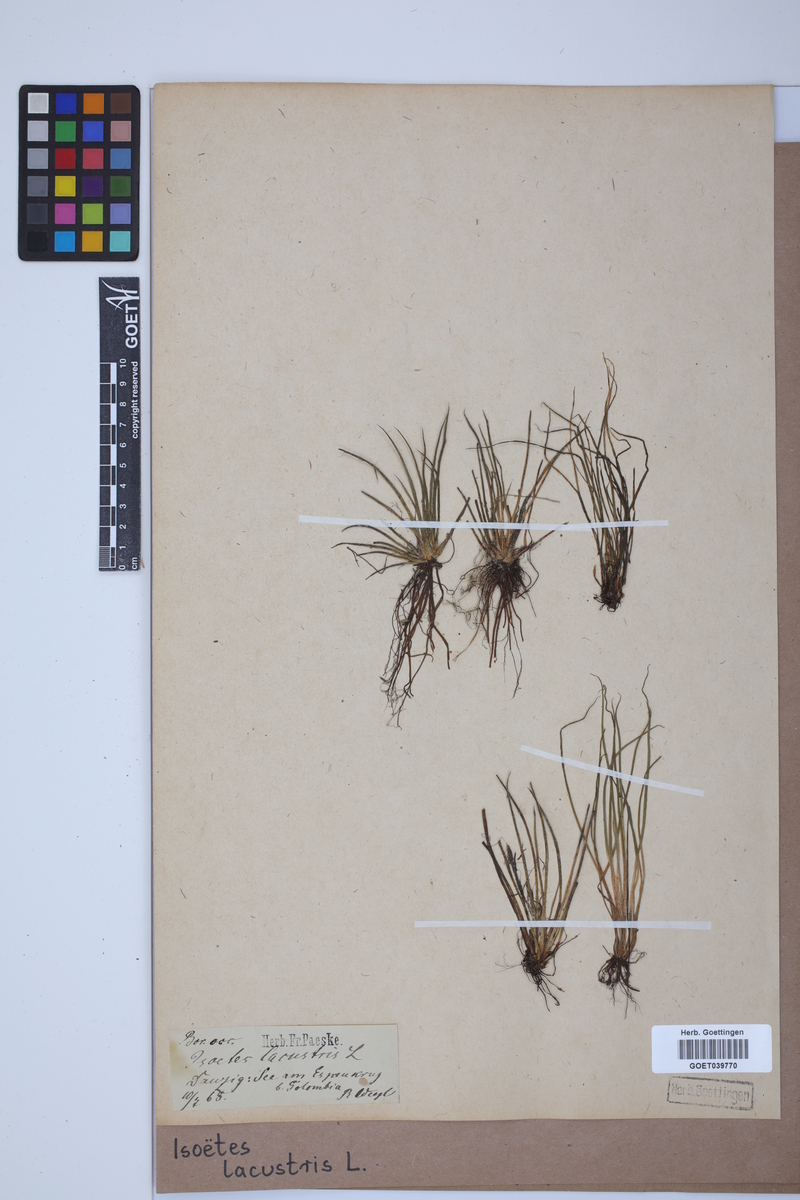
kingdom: Plantae
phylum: Tracheophyta
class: Lycopodiopsida
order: Isoetales
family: Isoetaceae
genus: Isoetes
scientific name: Isoetes lacustris
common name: Common quillwort
